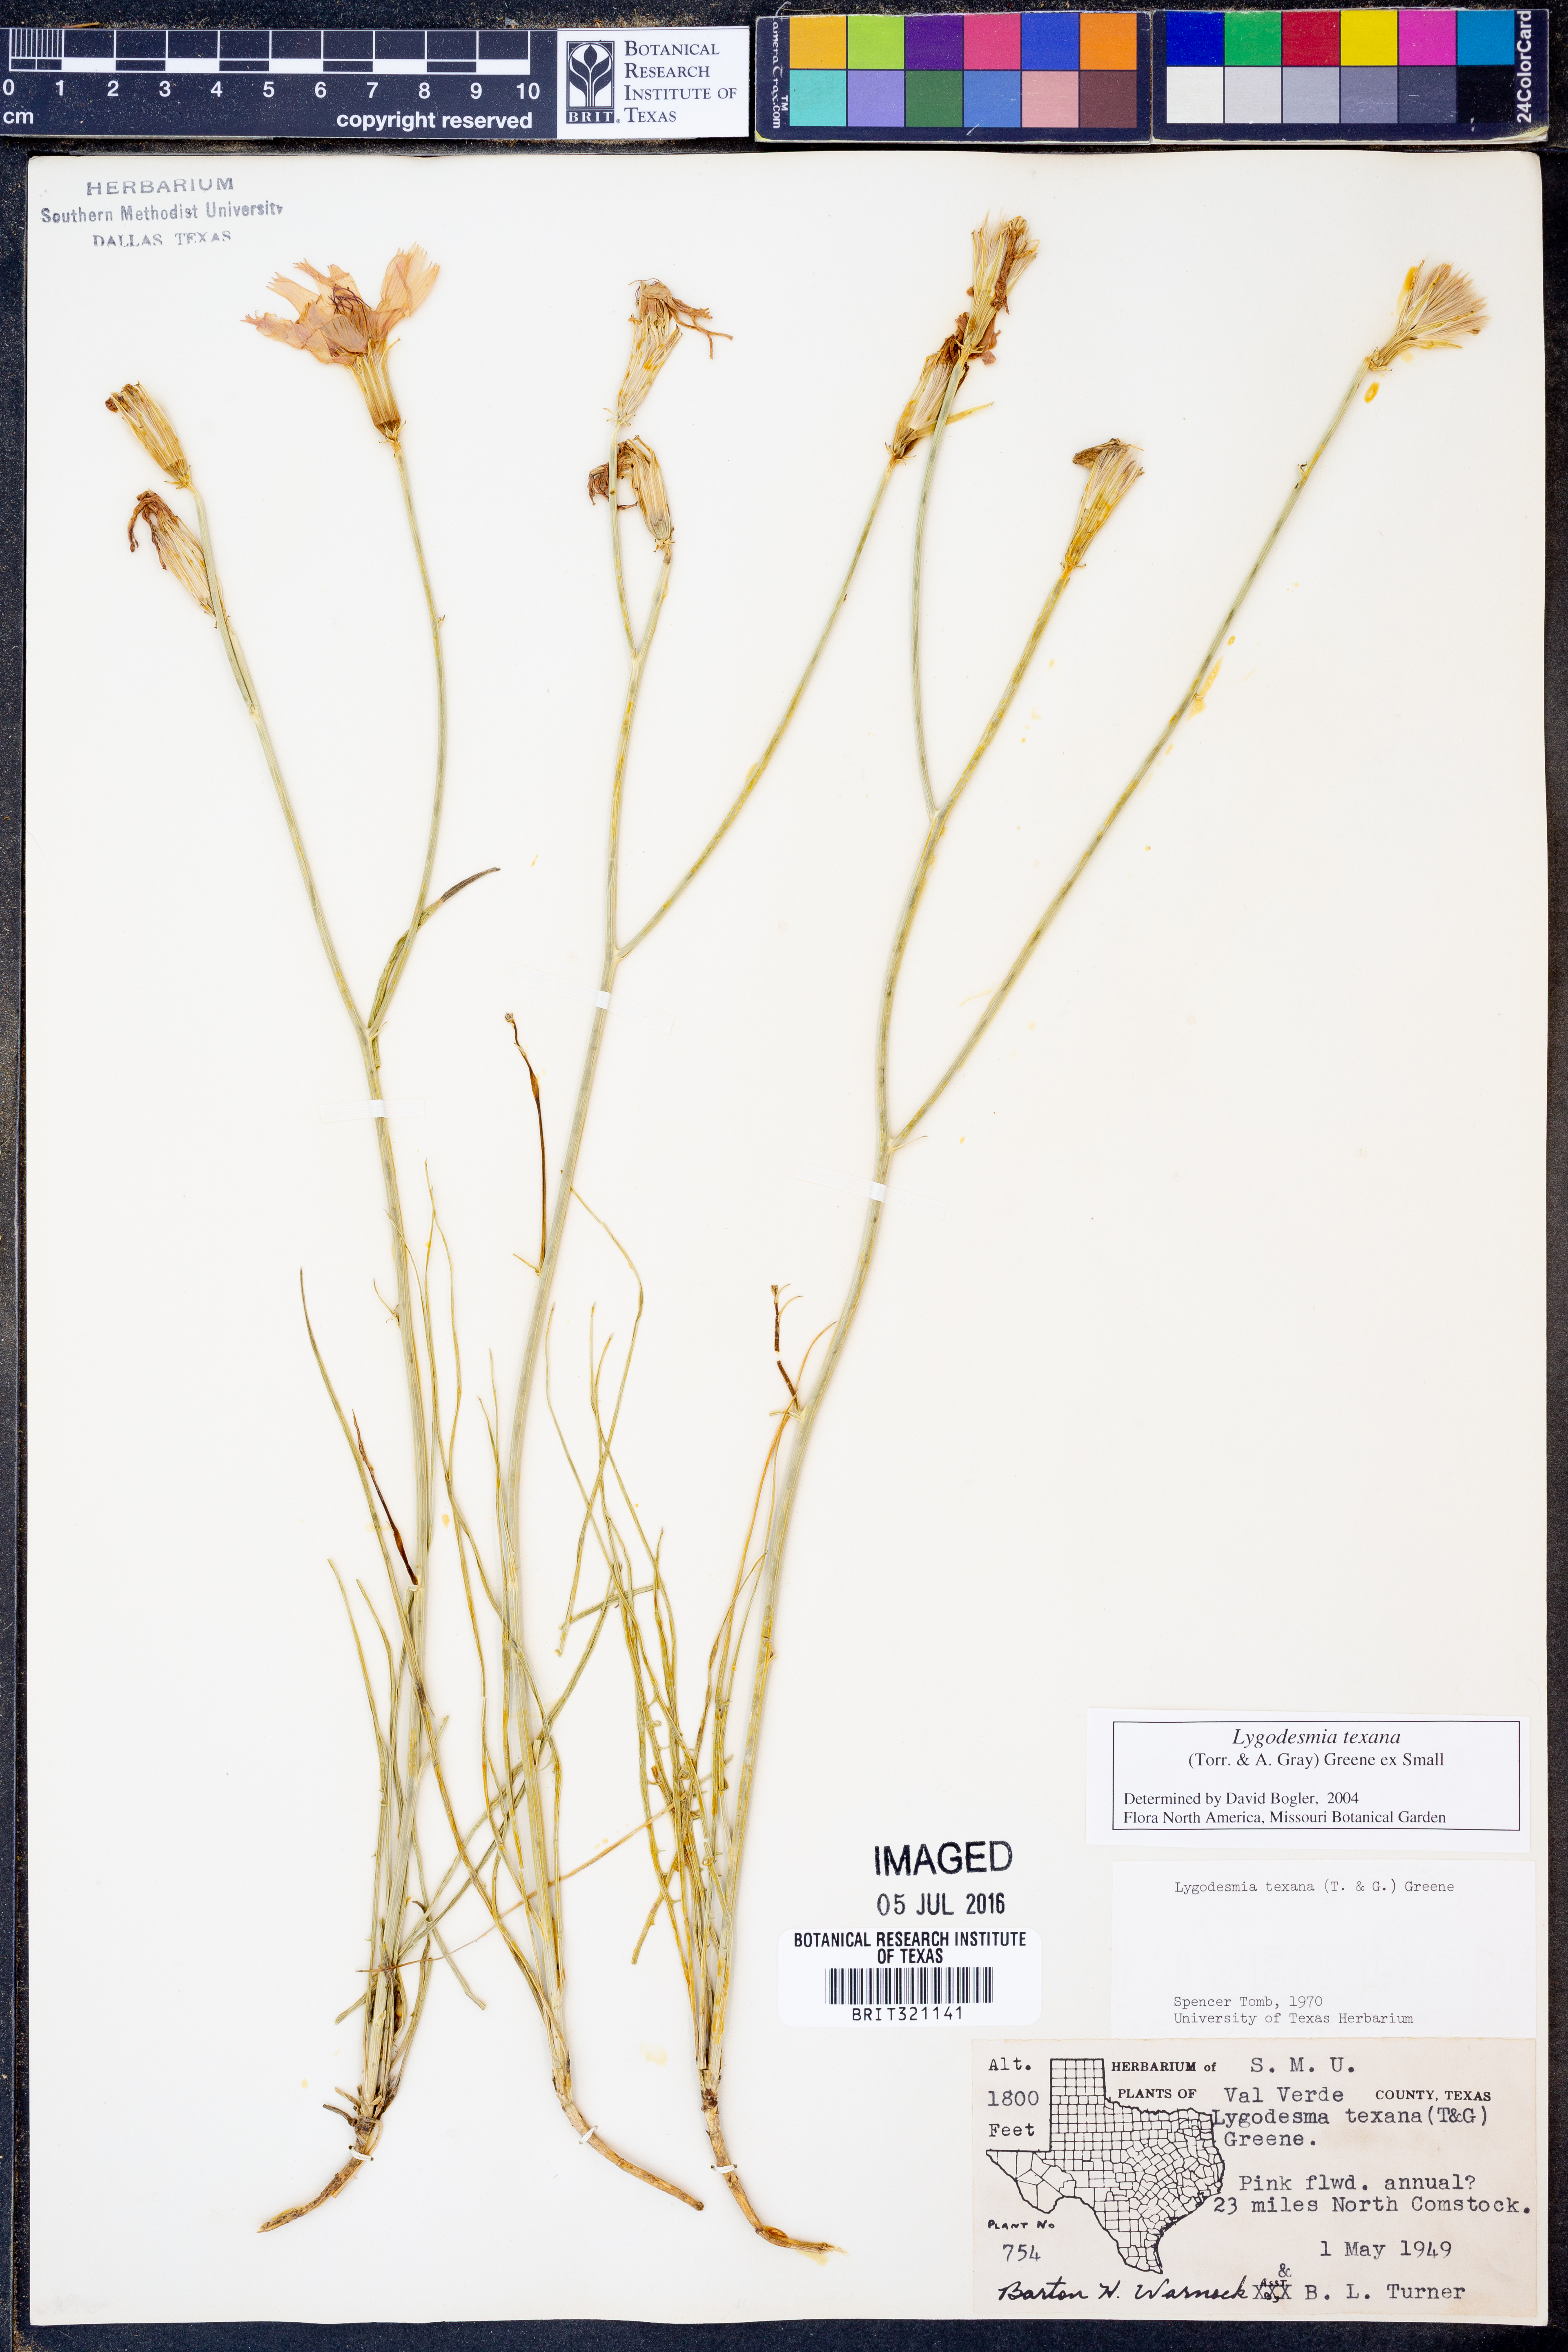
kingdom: Plantae
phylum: Tracheophyta
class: Magnoliopsida
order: Asterales
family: Asteraceae
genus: Lygodesmia
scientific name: Lygodesmia texana
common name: Texas skeleton-plant
